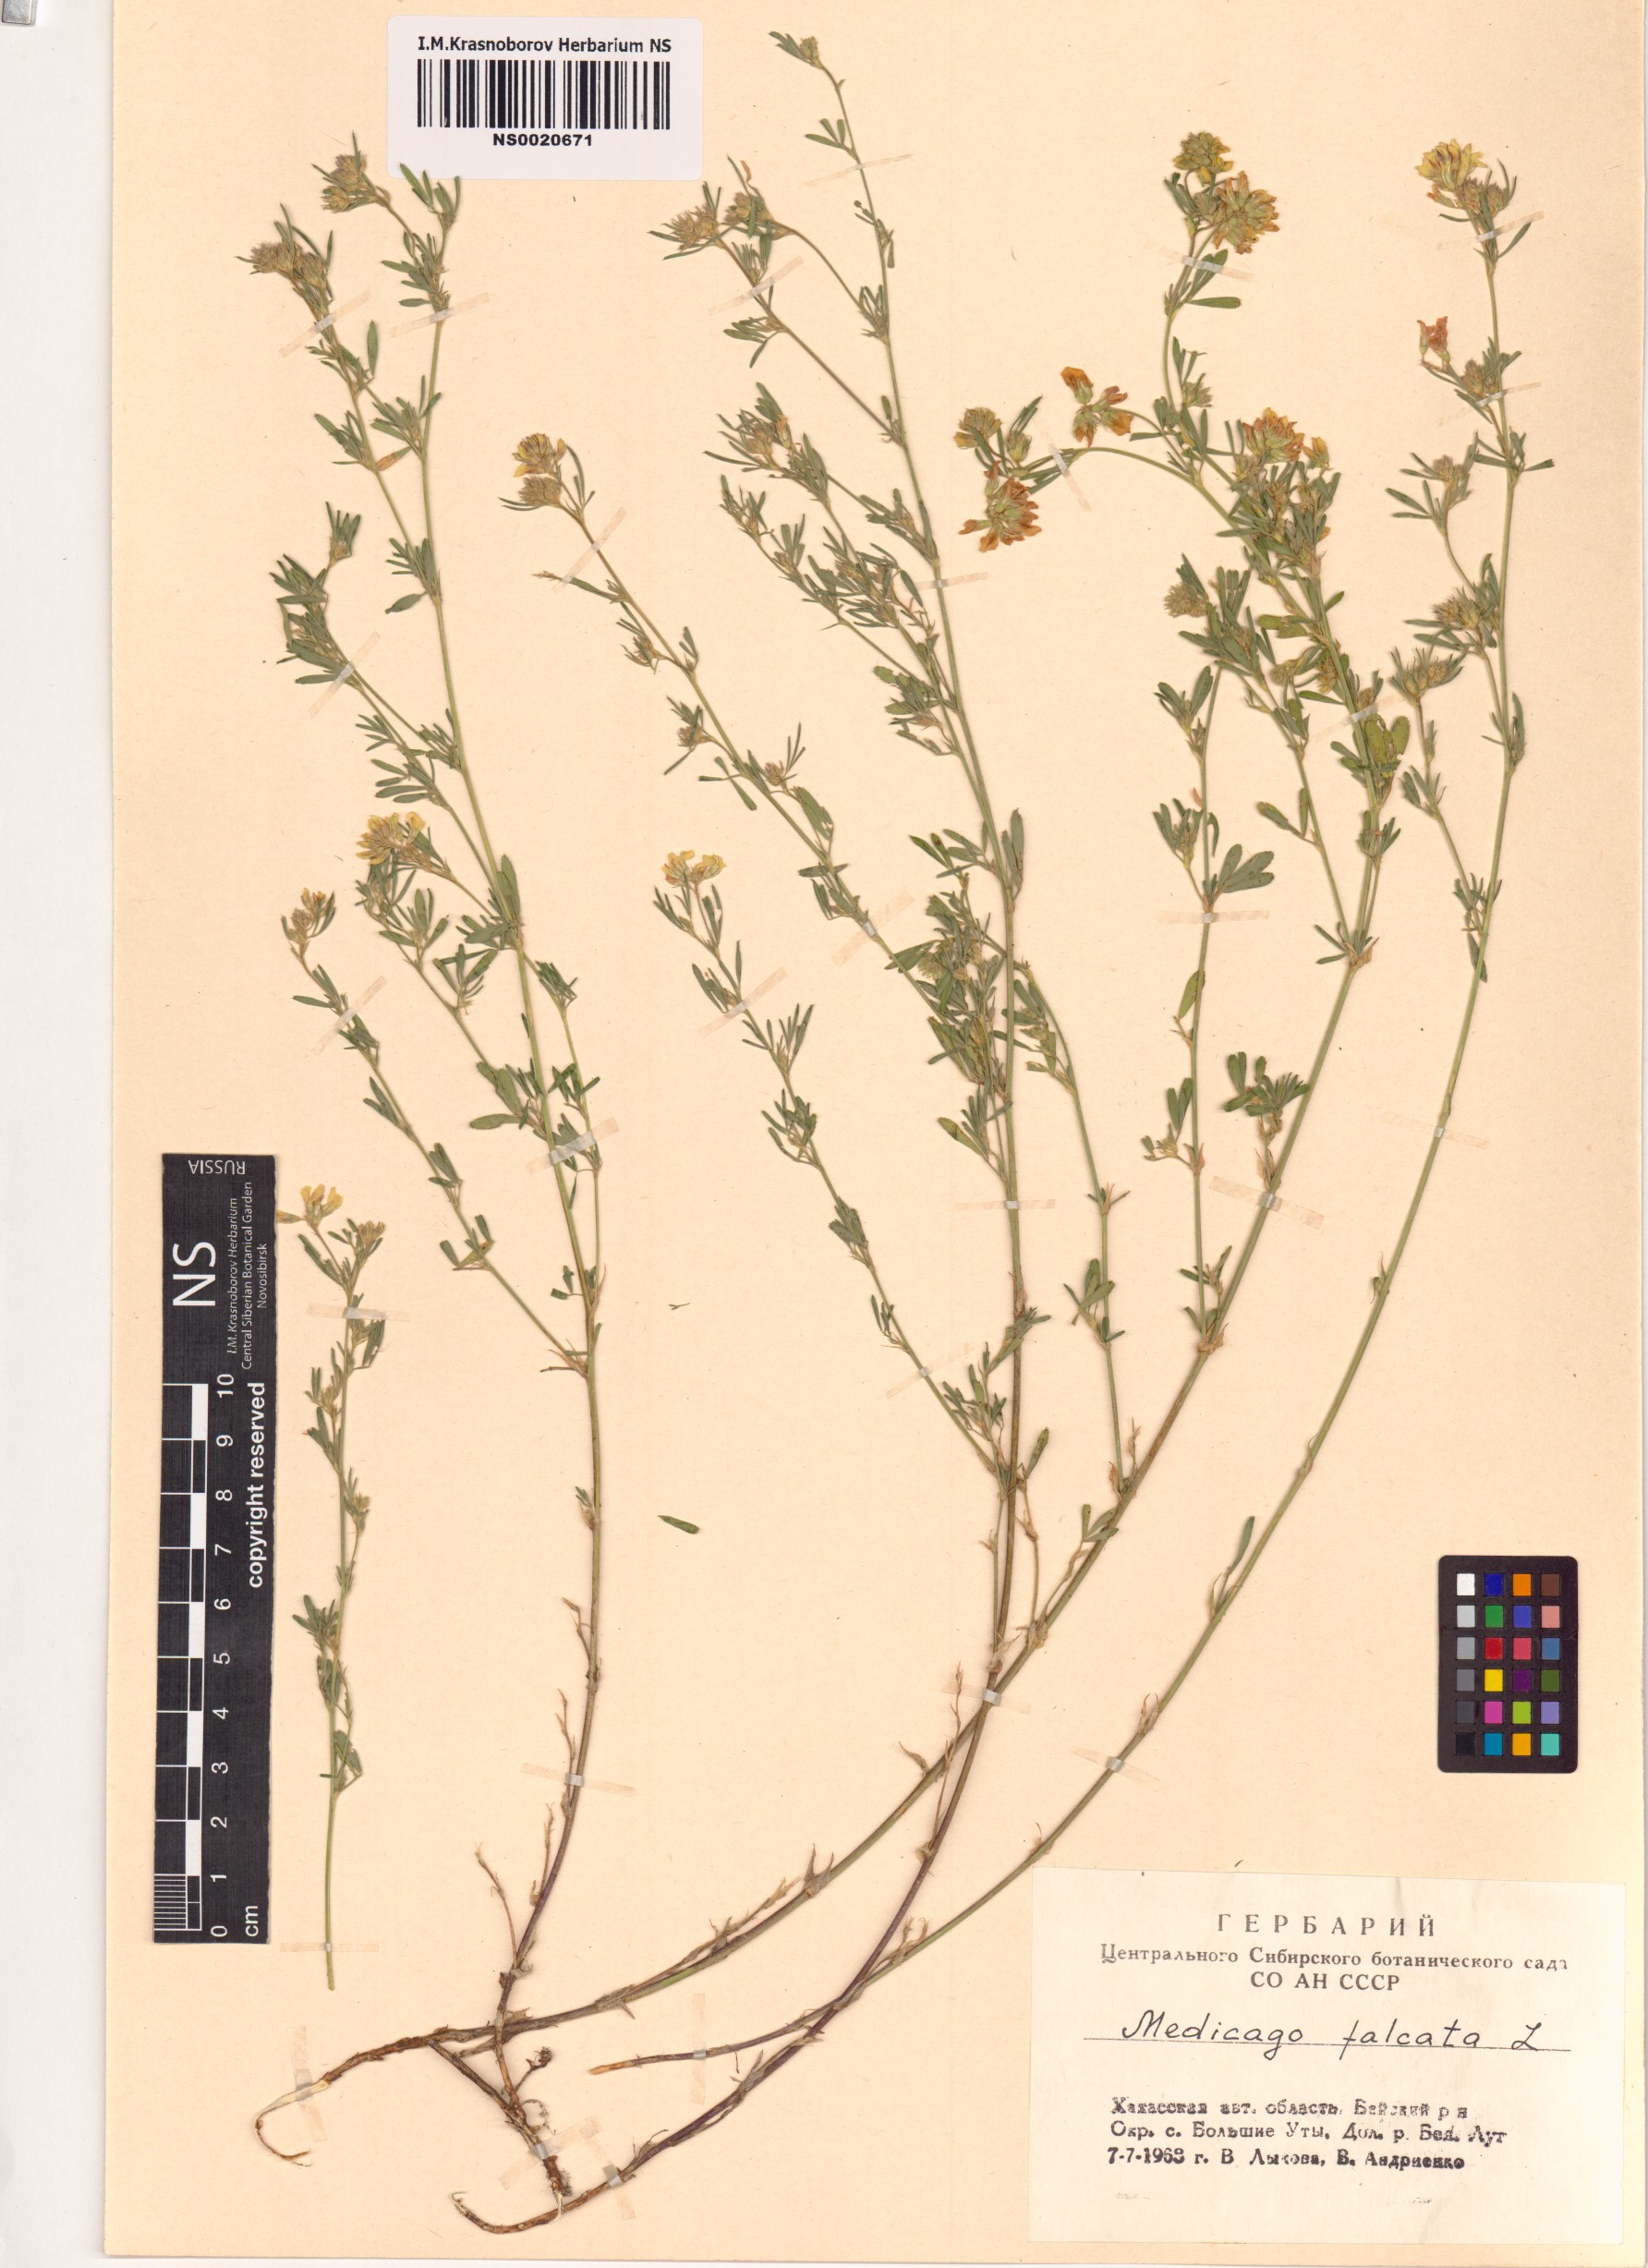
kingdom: Plantae
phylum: Tracheophyta
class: Magnoliopsida
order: Fabales
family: Fabaceae
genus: Medicago
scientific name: Medicago falcata
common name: Sickle medick
